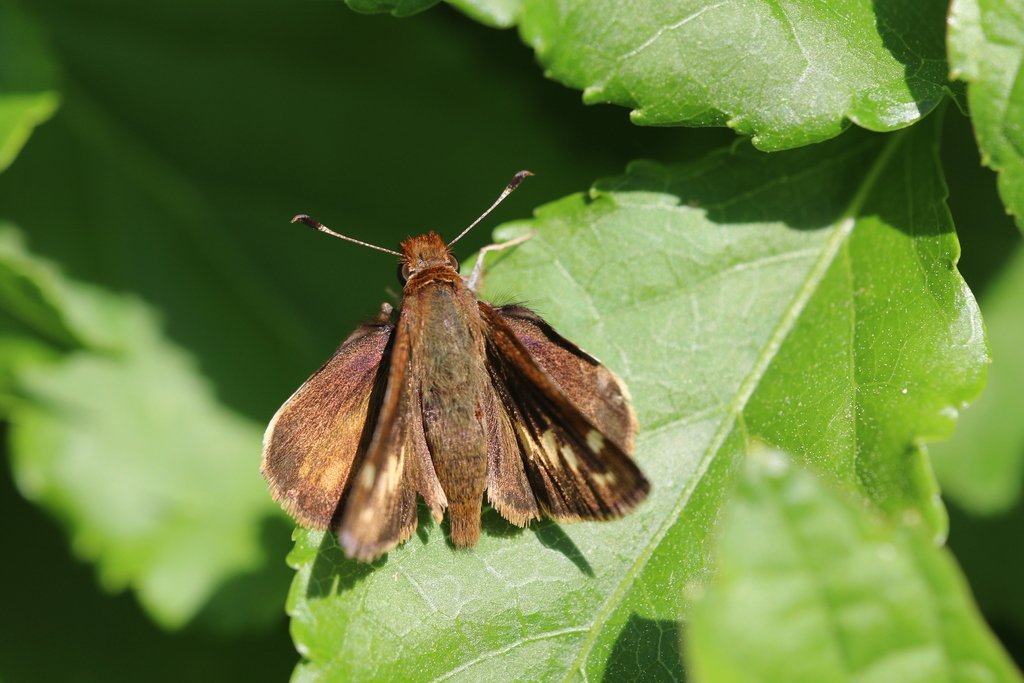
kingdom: Animalia
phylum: Arthropoda
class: Insecta
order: Lepidoptera
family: Hesperiidae
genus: Lon
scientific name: Lon zabulon
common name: Zabulon Skipper
